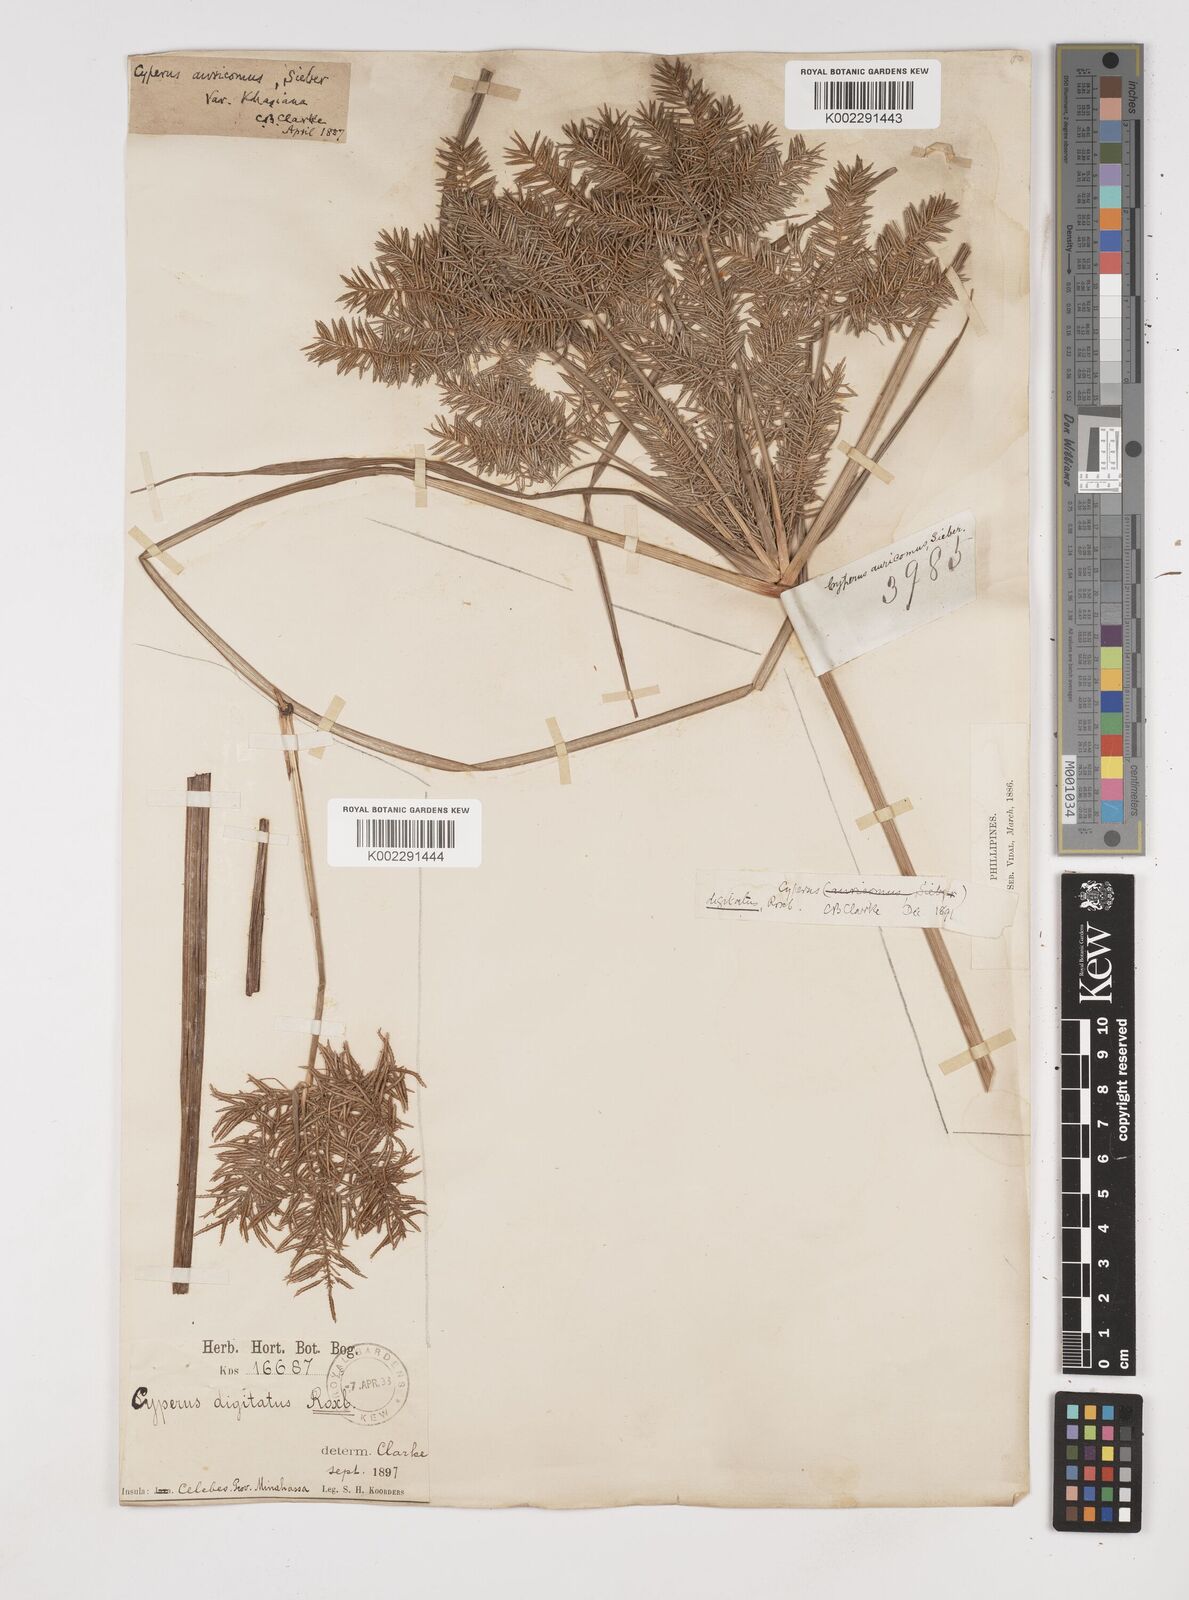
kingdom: Plantae
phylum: Tracheophyta
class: Liliopsida
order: Poales
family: Cyperaceae
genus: Cyperus
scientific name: Cyperus digitatus
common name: Finger flatsedge
